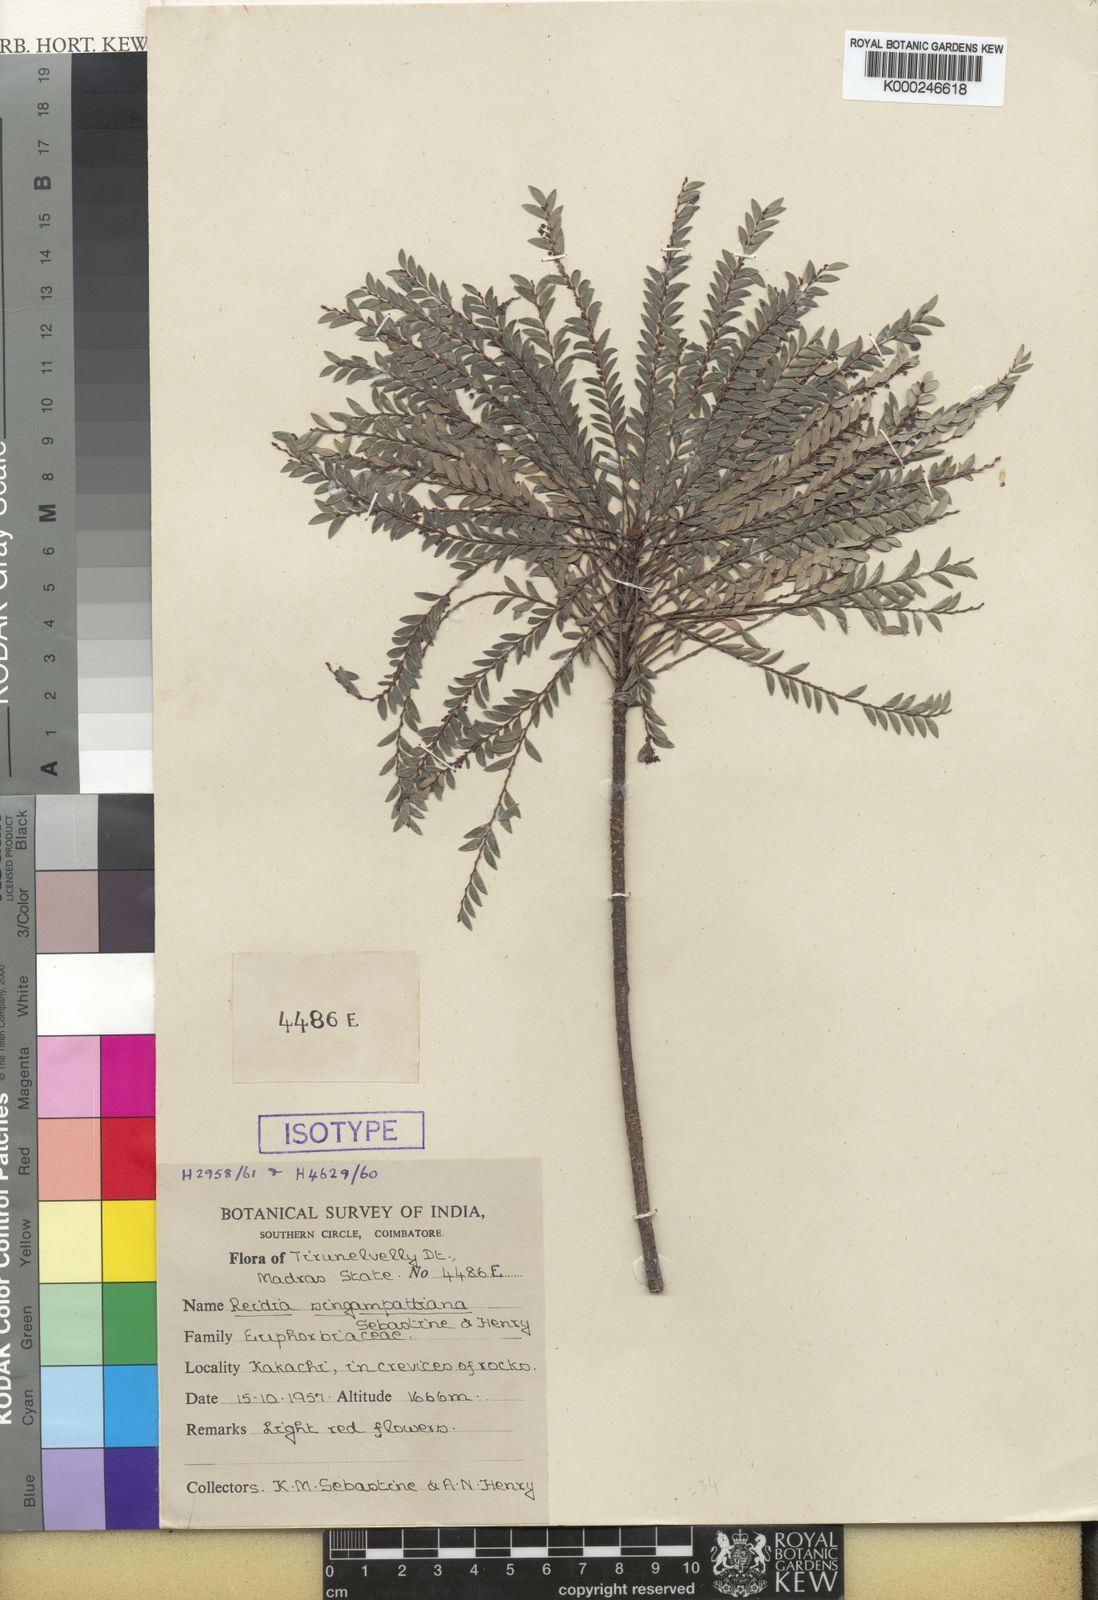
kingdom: Plantae
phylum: Tracheophyta
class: Magnoliopsida
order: Malpighiales
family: Phyllanthaceae
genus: Phyllanthus
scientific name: Phyllanthus singampattianus
